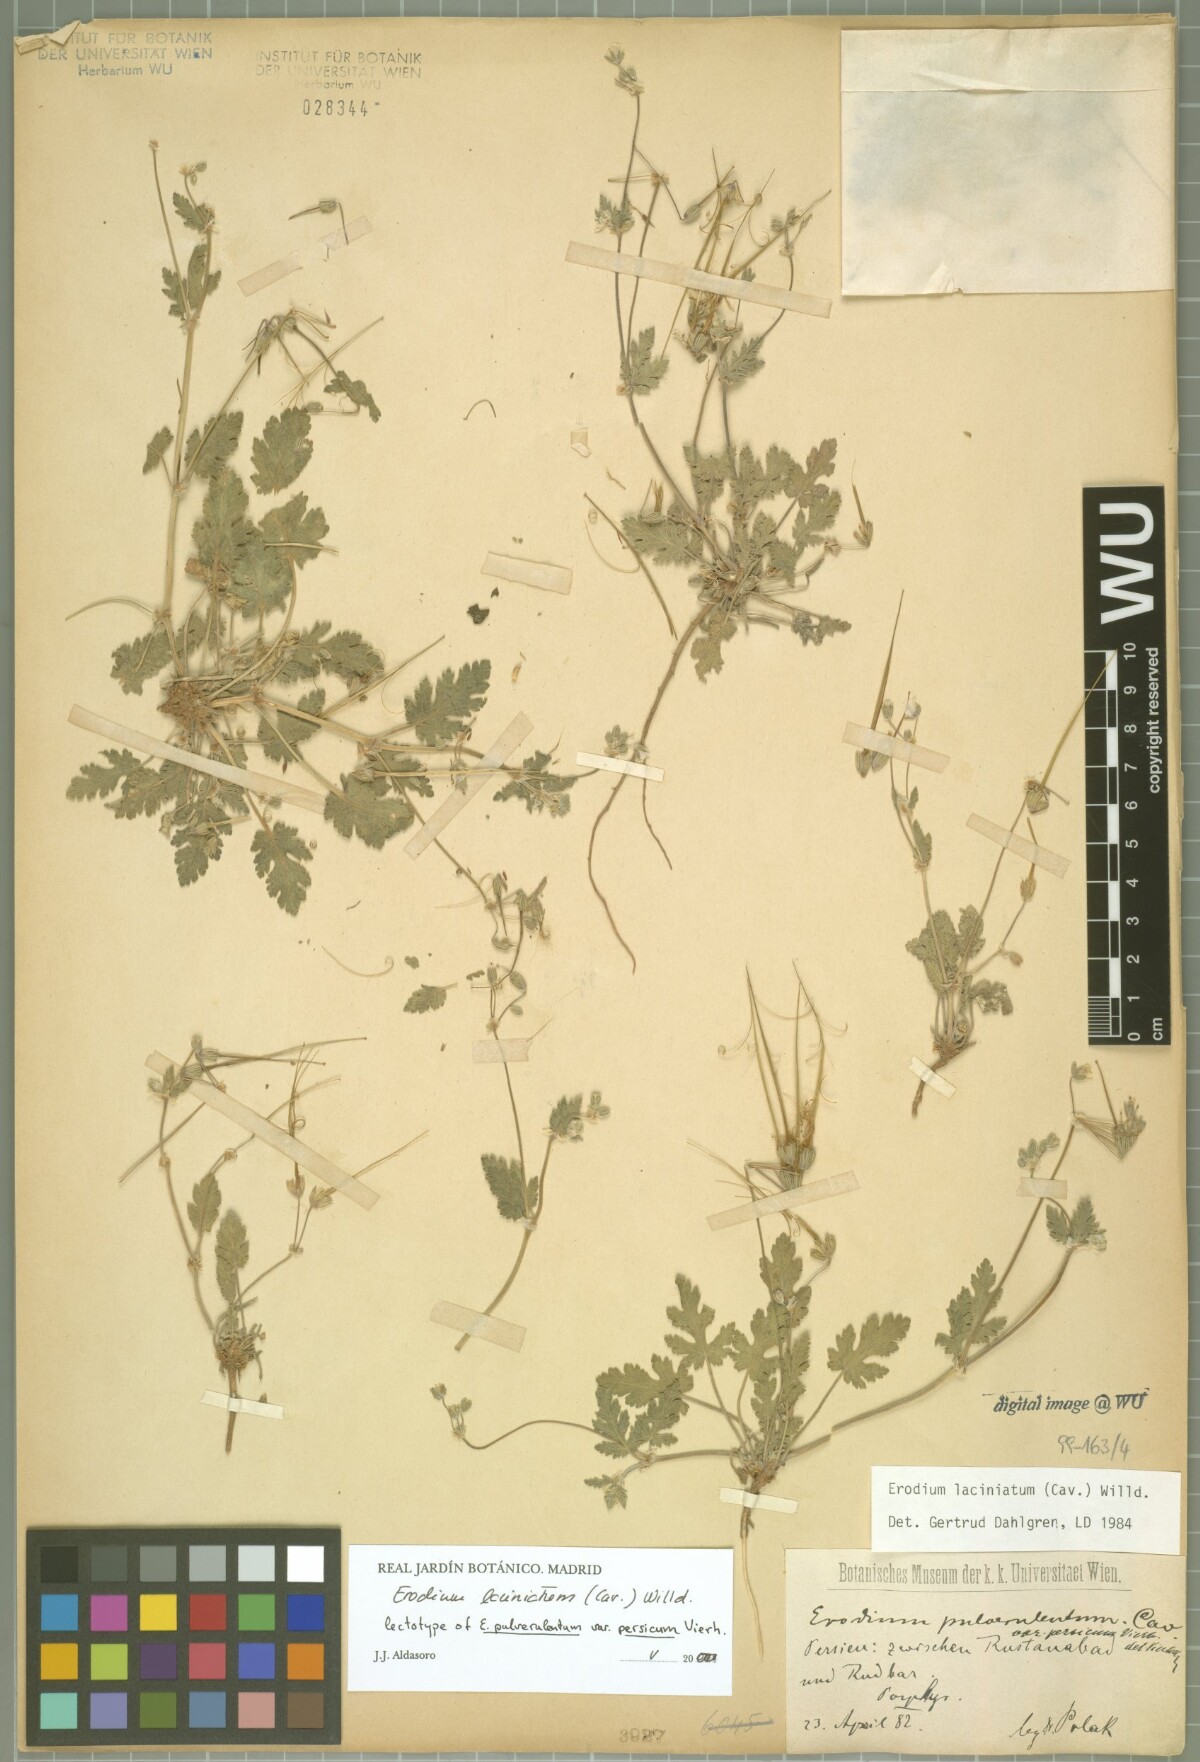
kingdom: Plantae
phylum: Tracheophyta
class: Magnoliopsida
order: Geraniales
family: Geraniaceae
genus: Erodium
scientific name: Erodium laciniatum
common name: Cutleaf stork's bill
